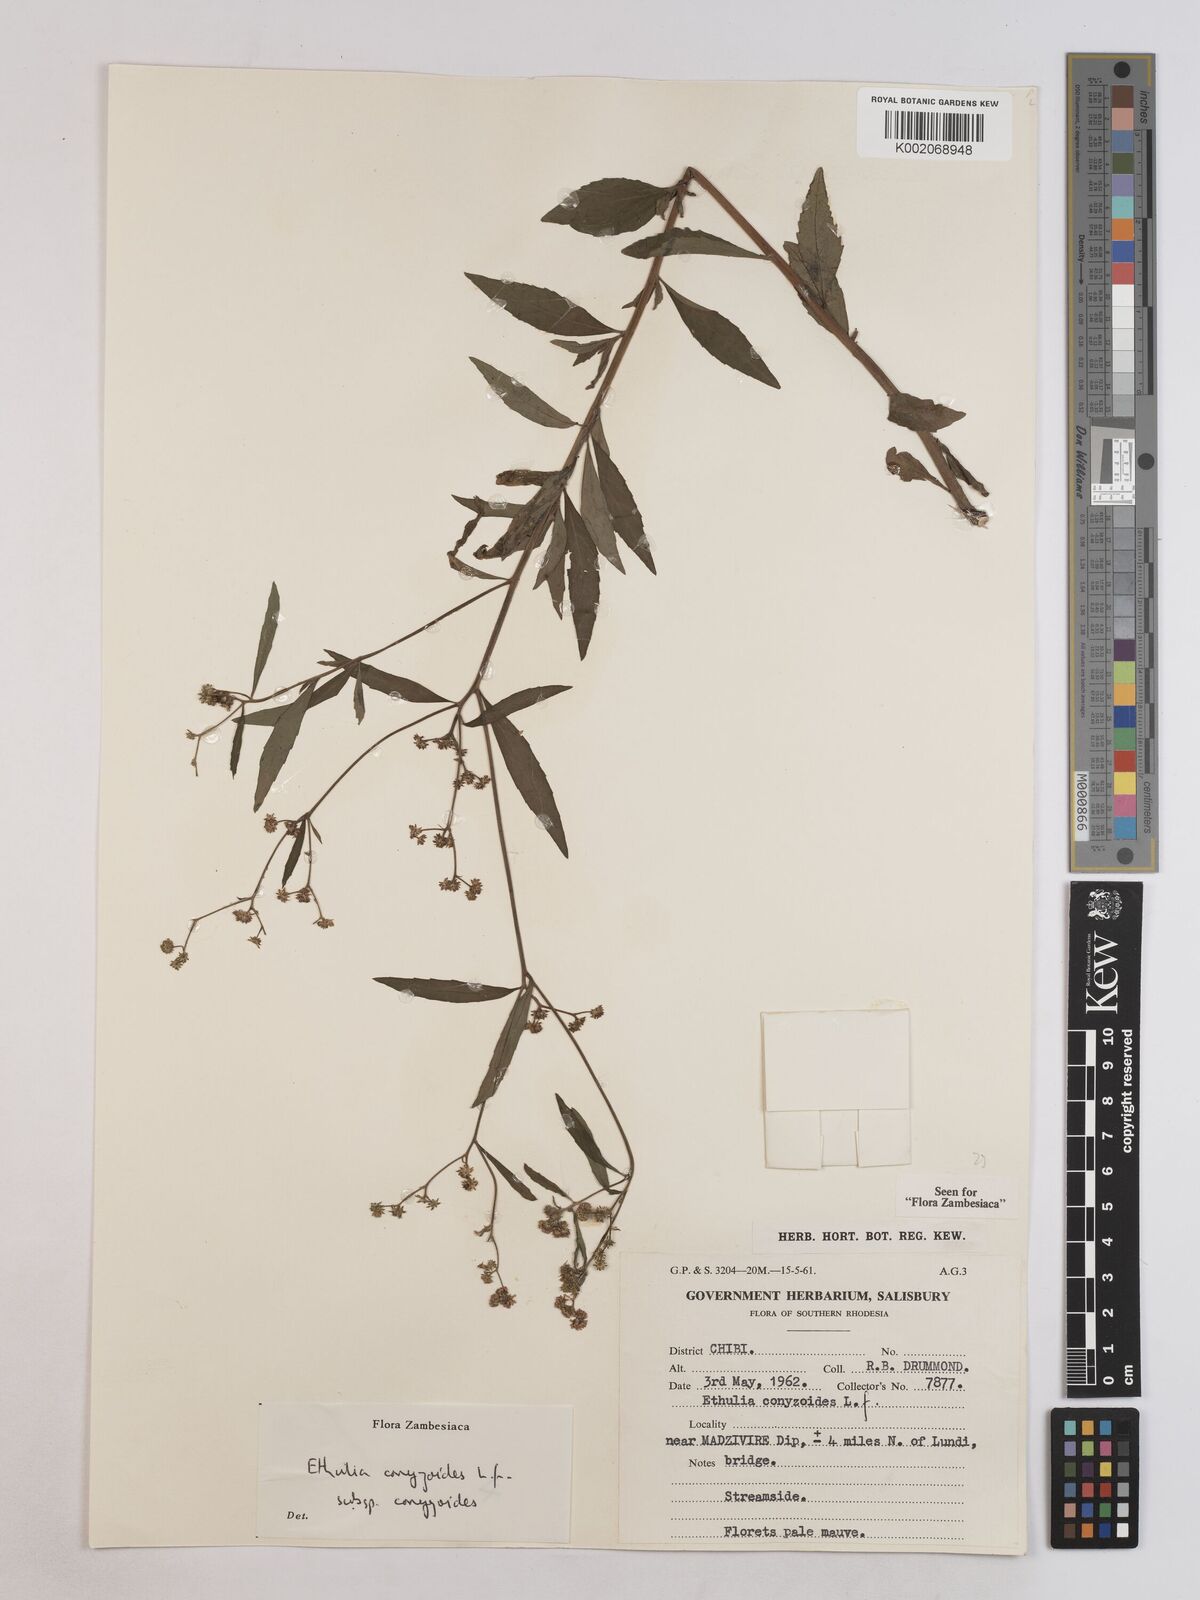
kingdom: Plantae
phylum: Tracheophyta
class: Magnoliopsida
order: Asterales
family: Asteraceae
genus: Ethulia
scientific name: Ethulia conyzoides
